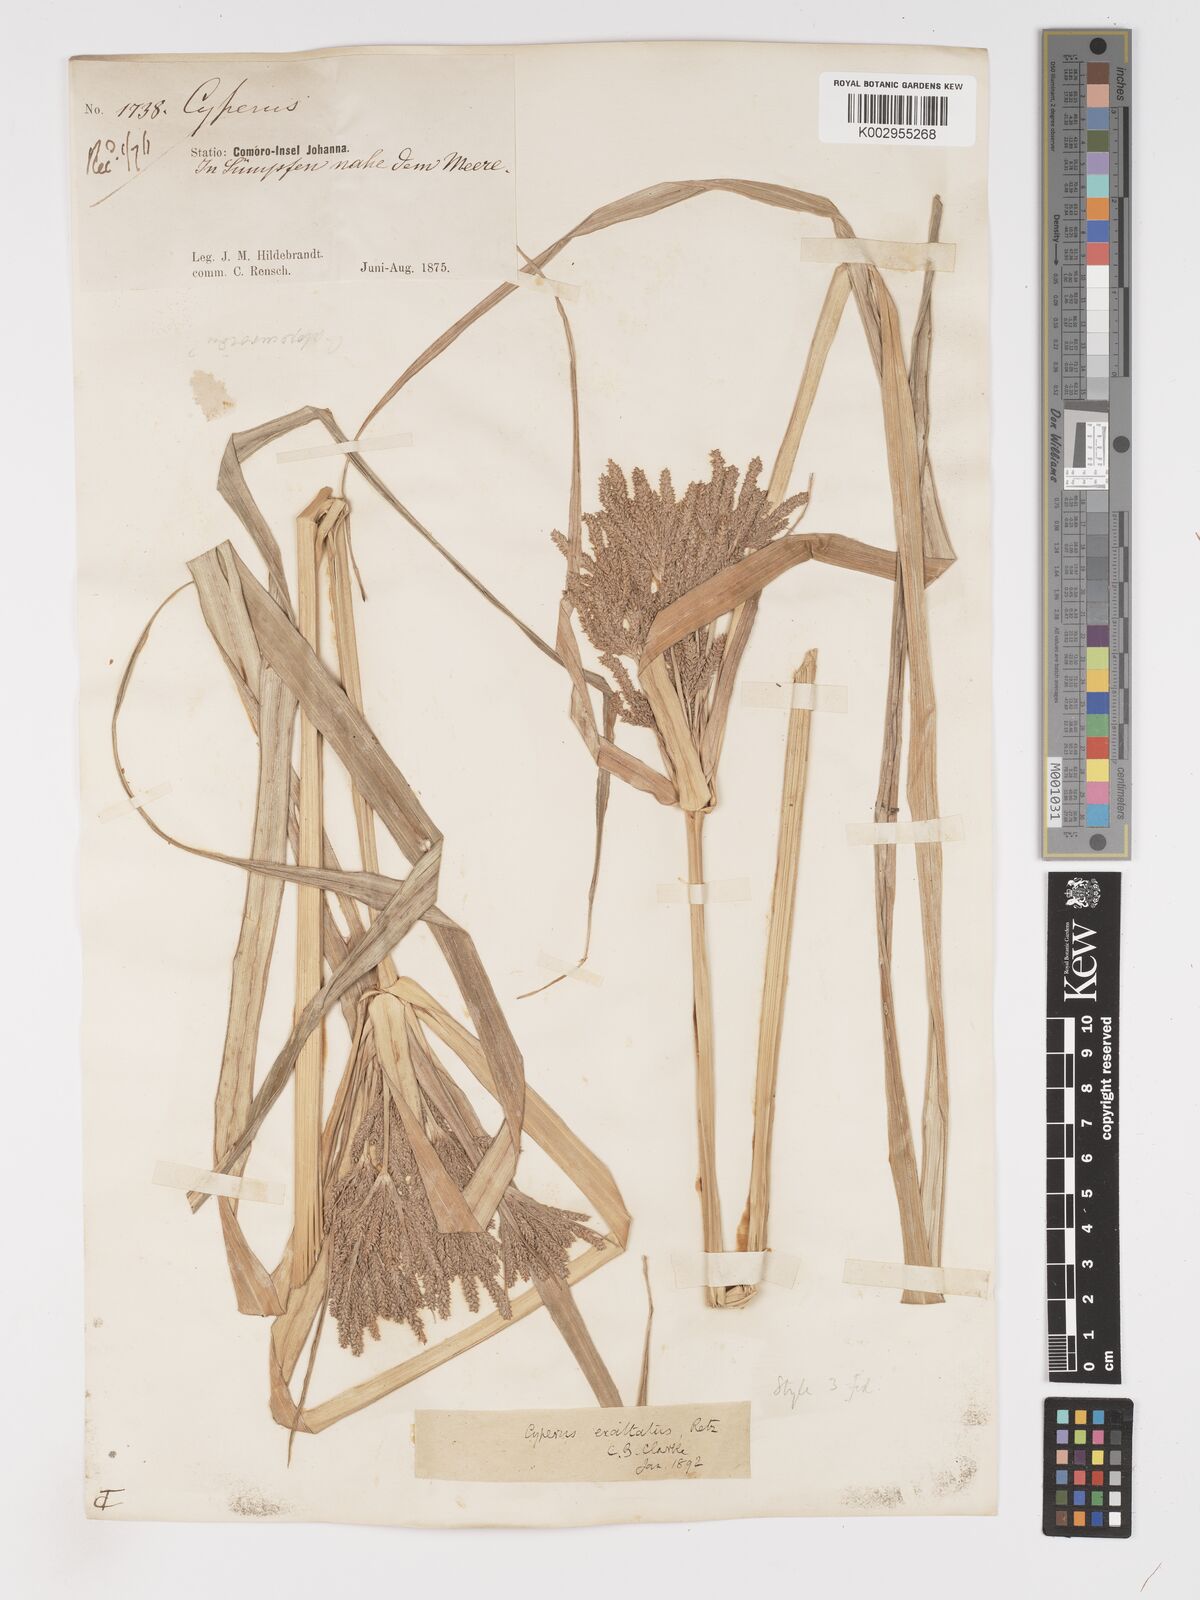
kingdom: Plantae
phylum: Tracheophyta
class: Liliopsida
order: Poales
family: Cyperaceae
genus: Cyperus
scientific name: Cyperus exaltatus
